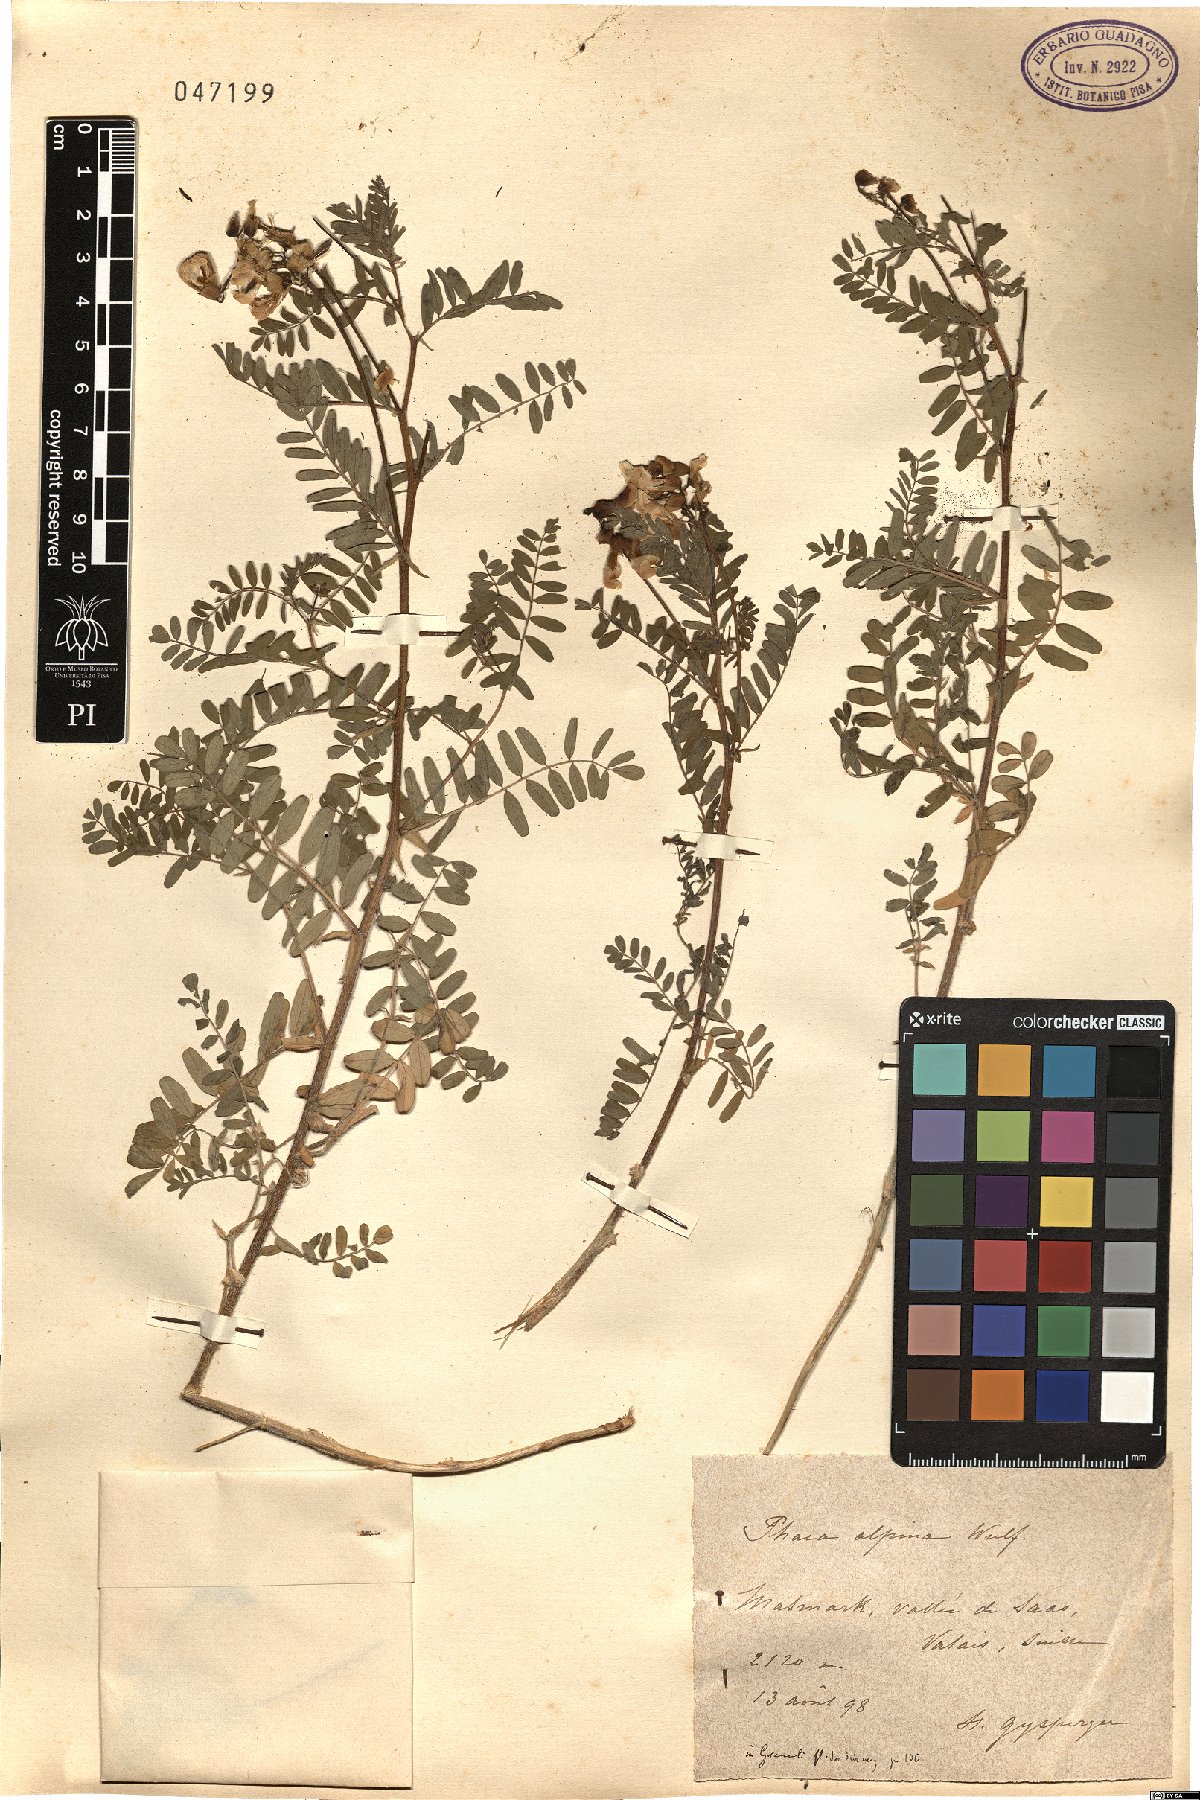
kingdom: Plantae
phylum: Tracheophyta
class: Magnoliopsida
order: Fabales
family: Fabaceae
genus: Astragalus
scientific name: Astragalus penduliflorus
